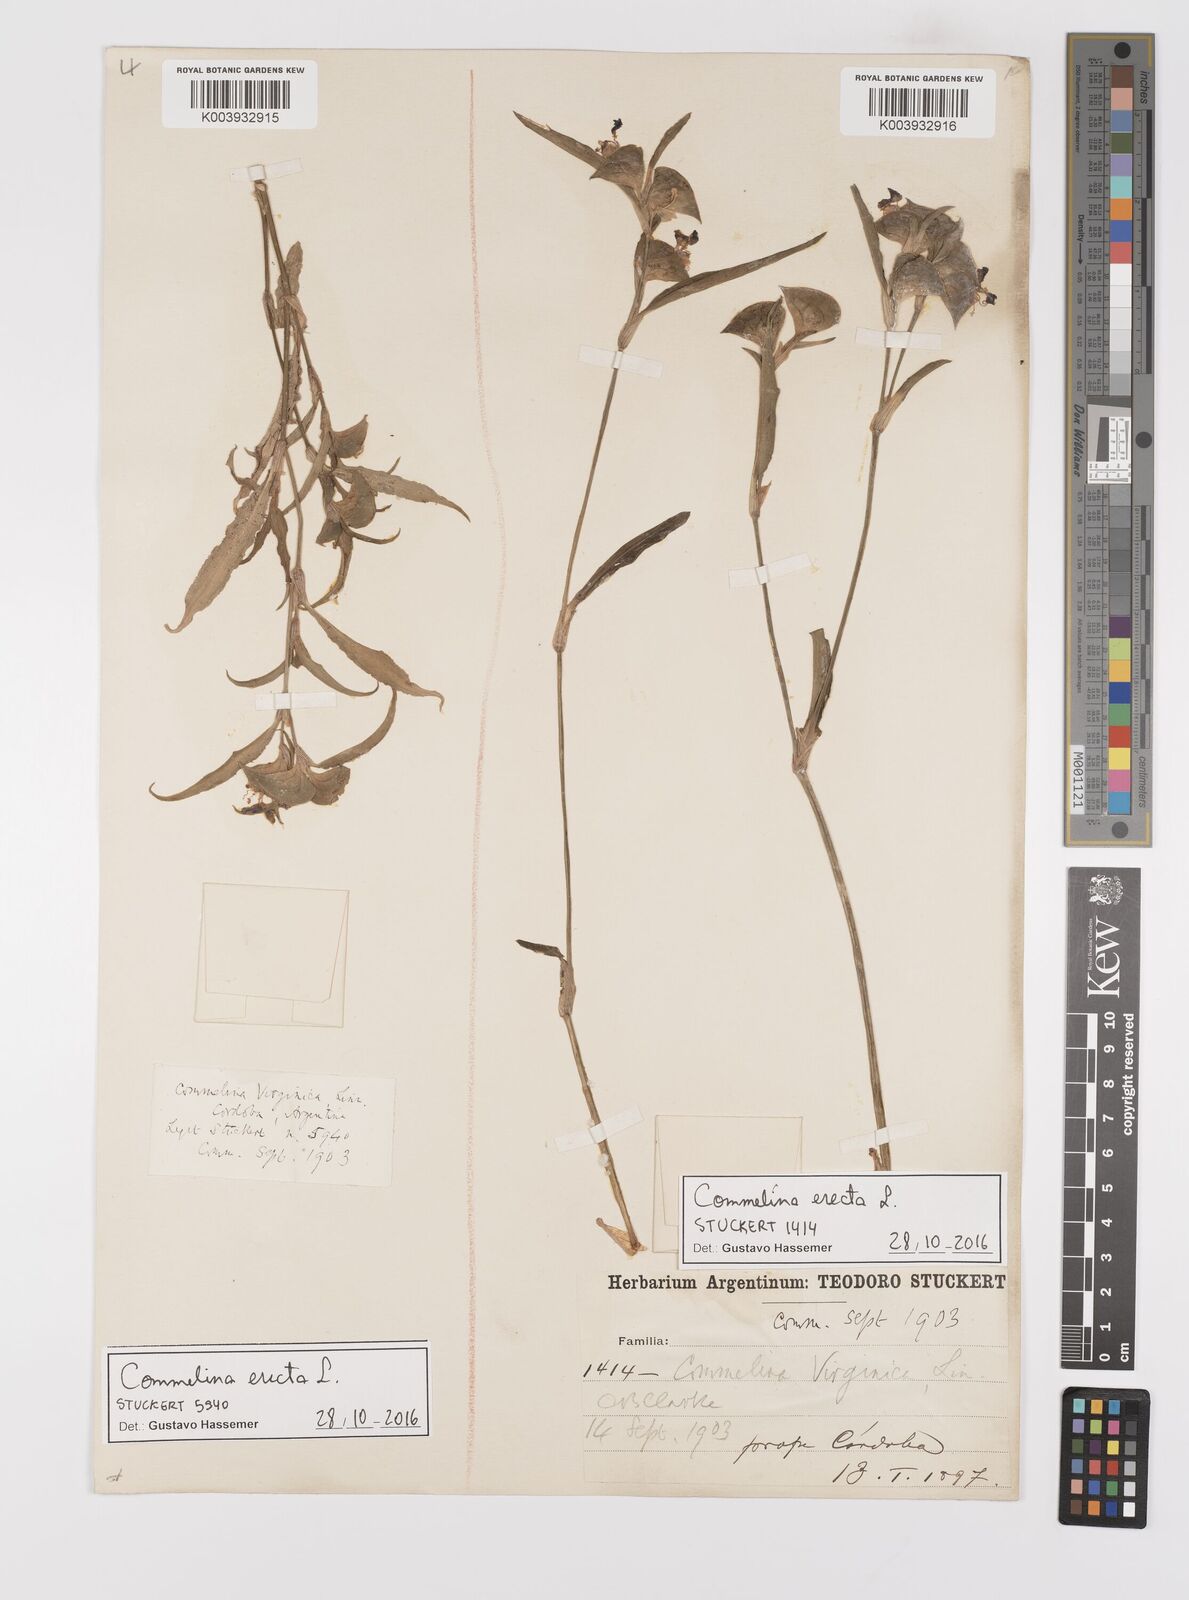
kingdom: Plantae
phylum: Tracheophyta
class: Liliopsida
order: Commelinales
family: Commelinaceae
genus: Commelina
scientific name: Commelina erecta
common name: Blousel blommetjie
